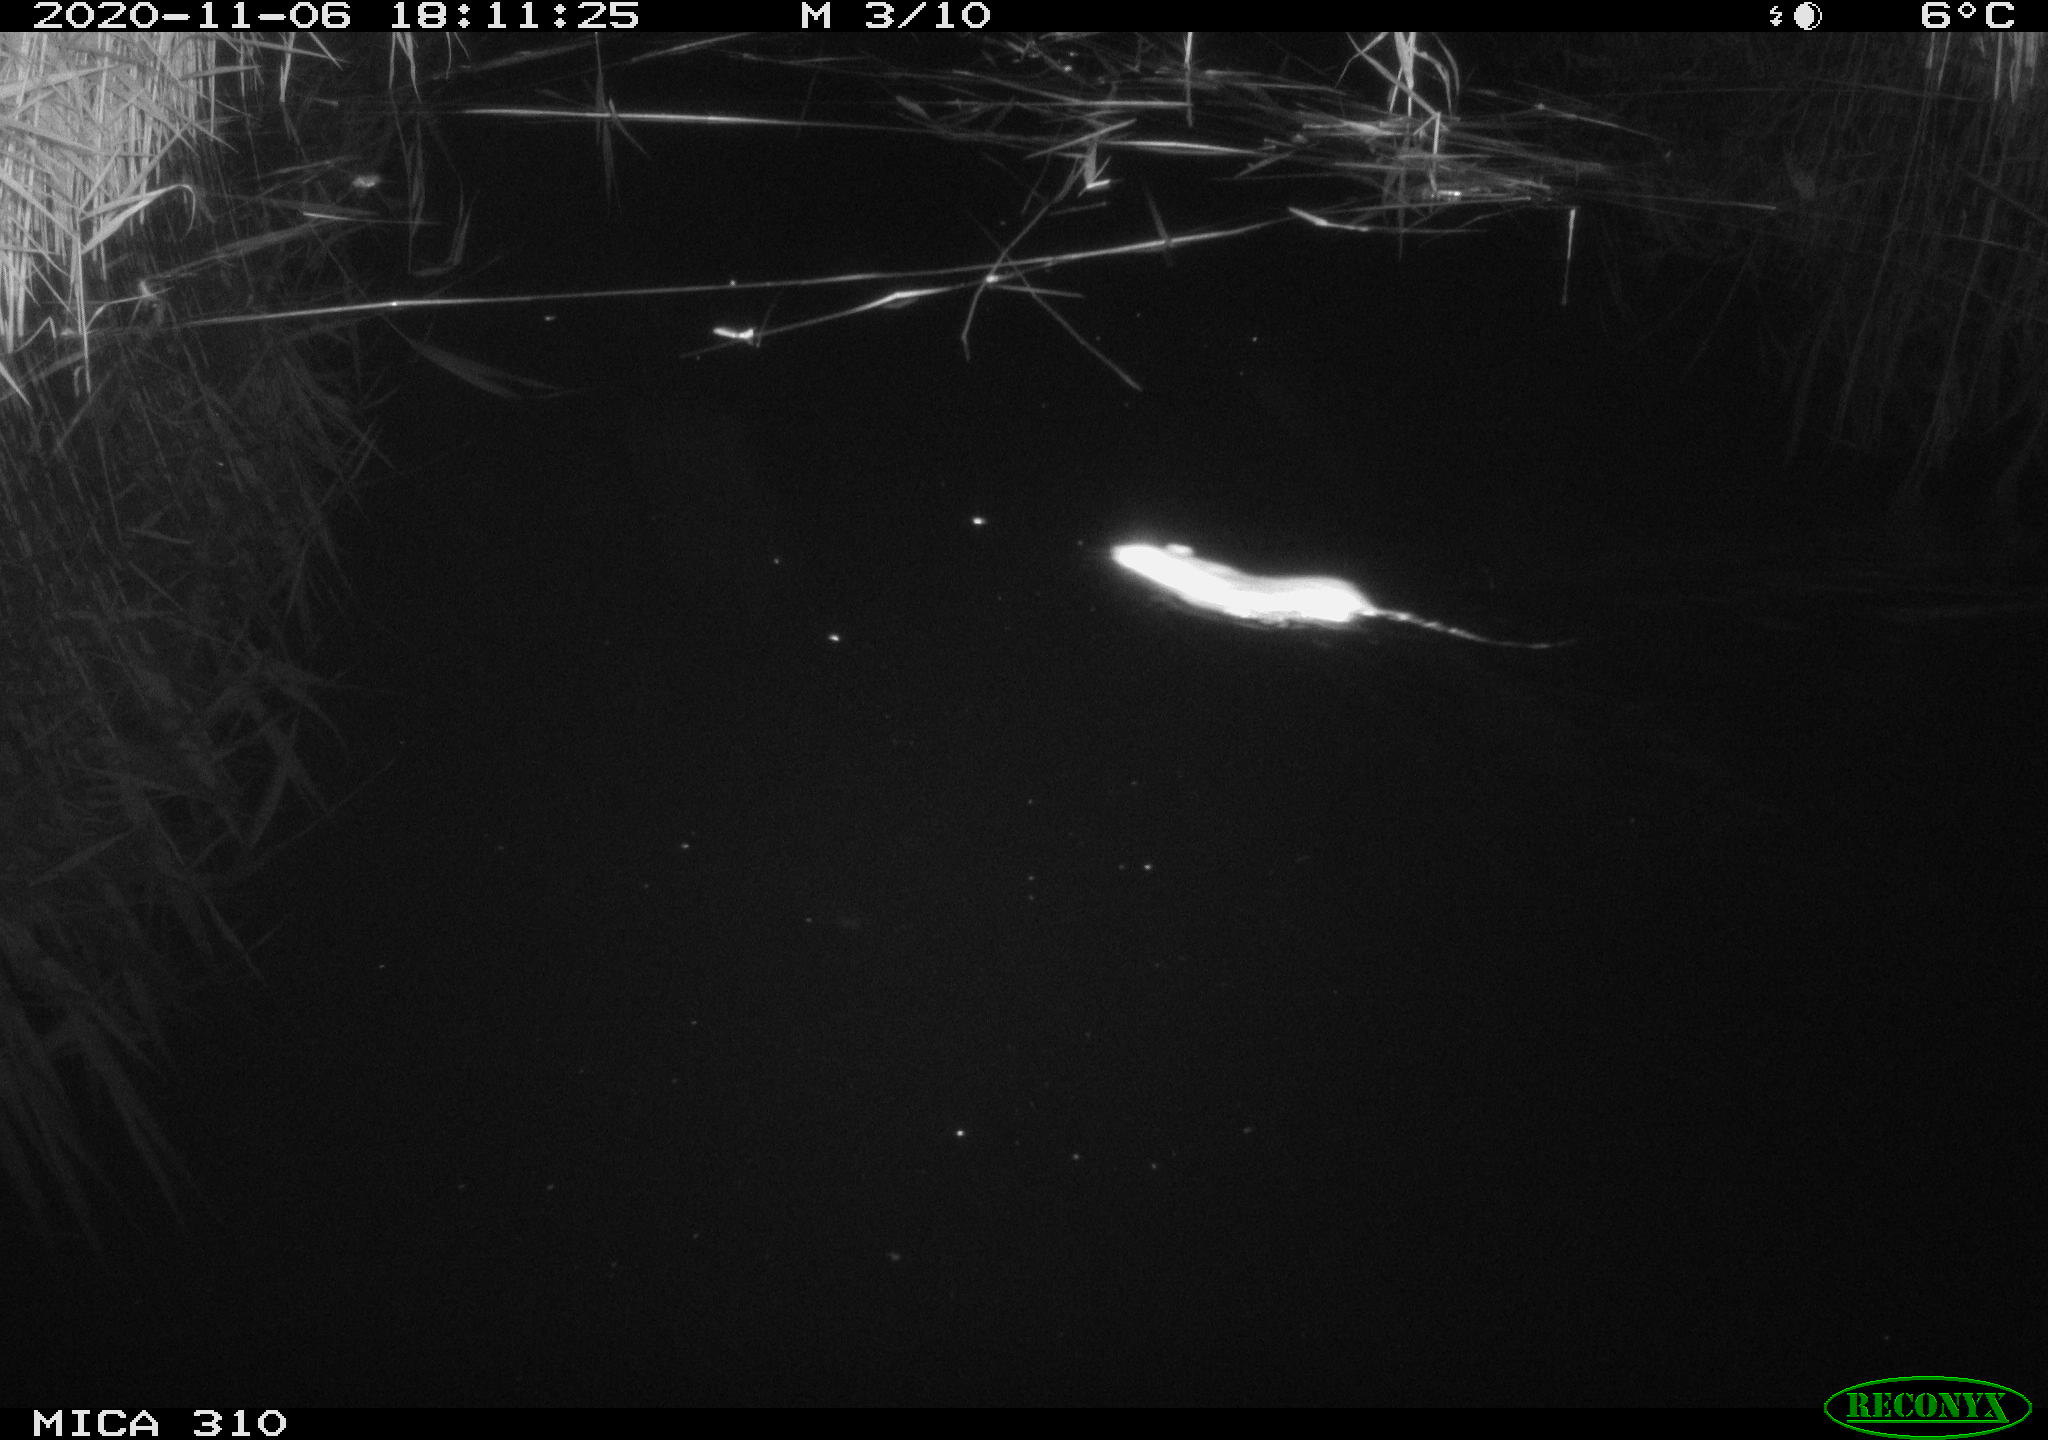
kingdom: Animalia
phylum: Chordata
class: Mammalia
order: Rodentia
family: Muridae
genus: Rattus
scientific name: Rattus norvegicus
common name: Brown rat
